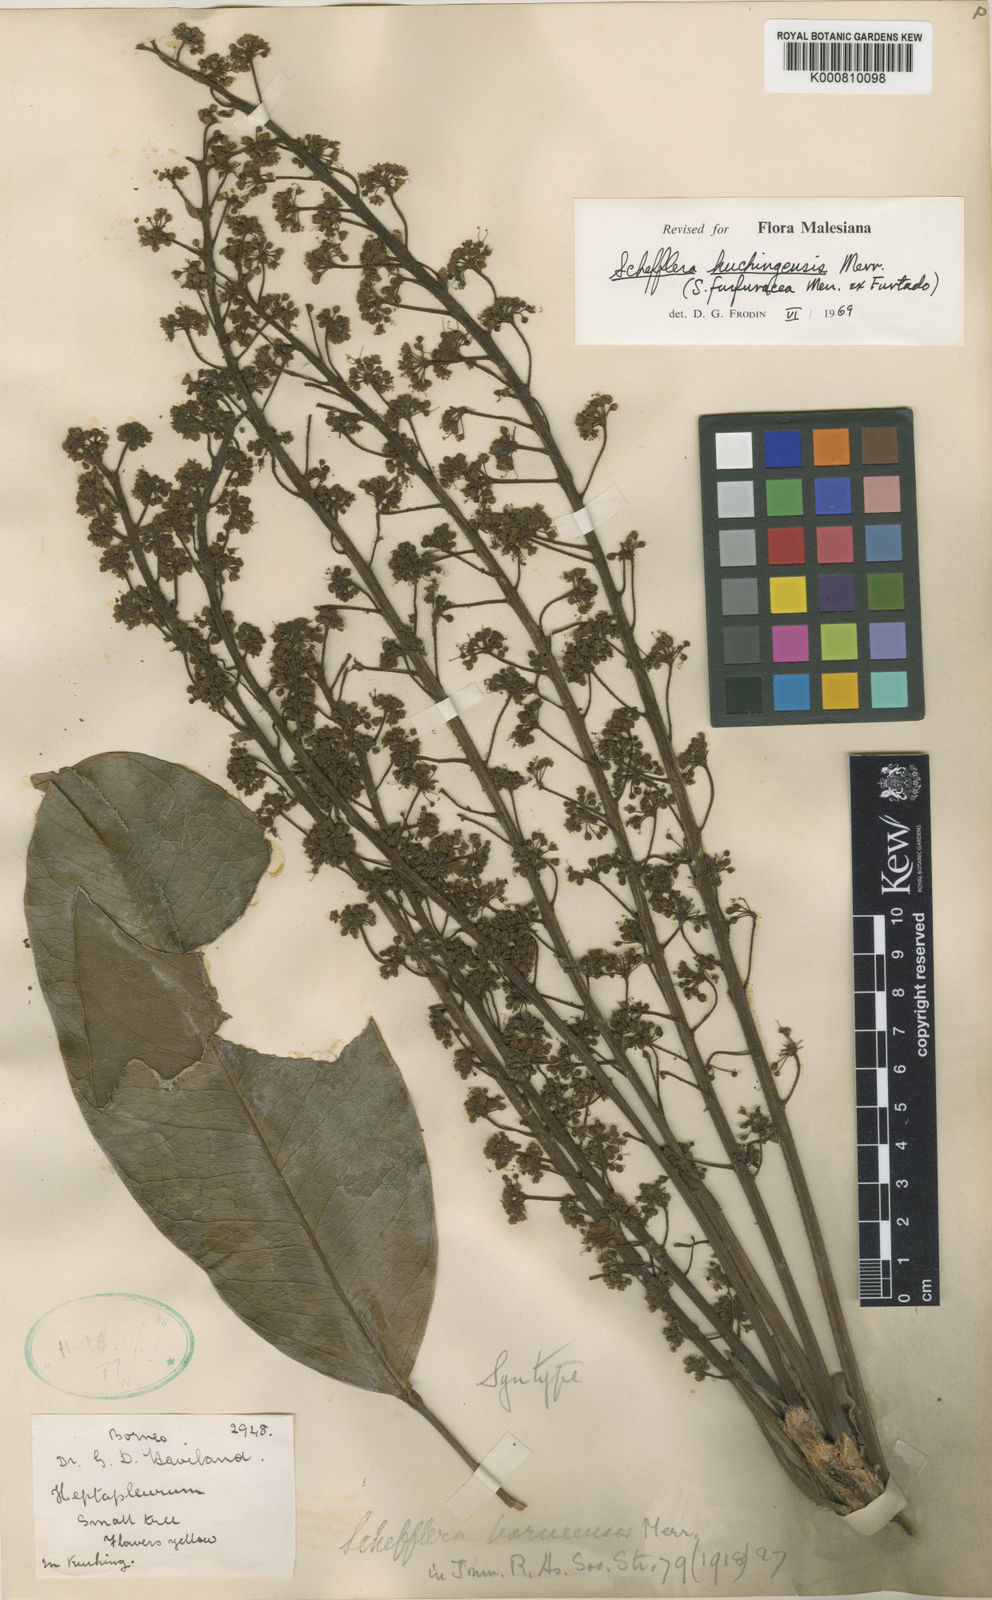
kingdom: Plantae
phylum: Tracheophyta
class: Magnoliopsida
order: Apiales
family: Araliaceae
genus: Heptapleurum
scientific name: Heptapleurum kuchingense
